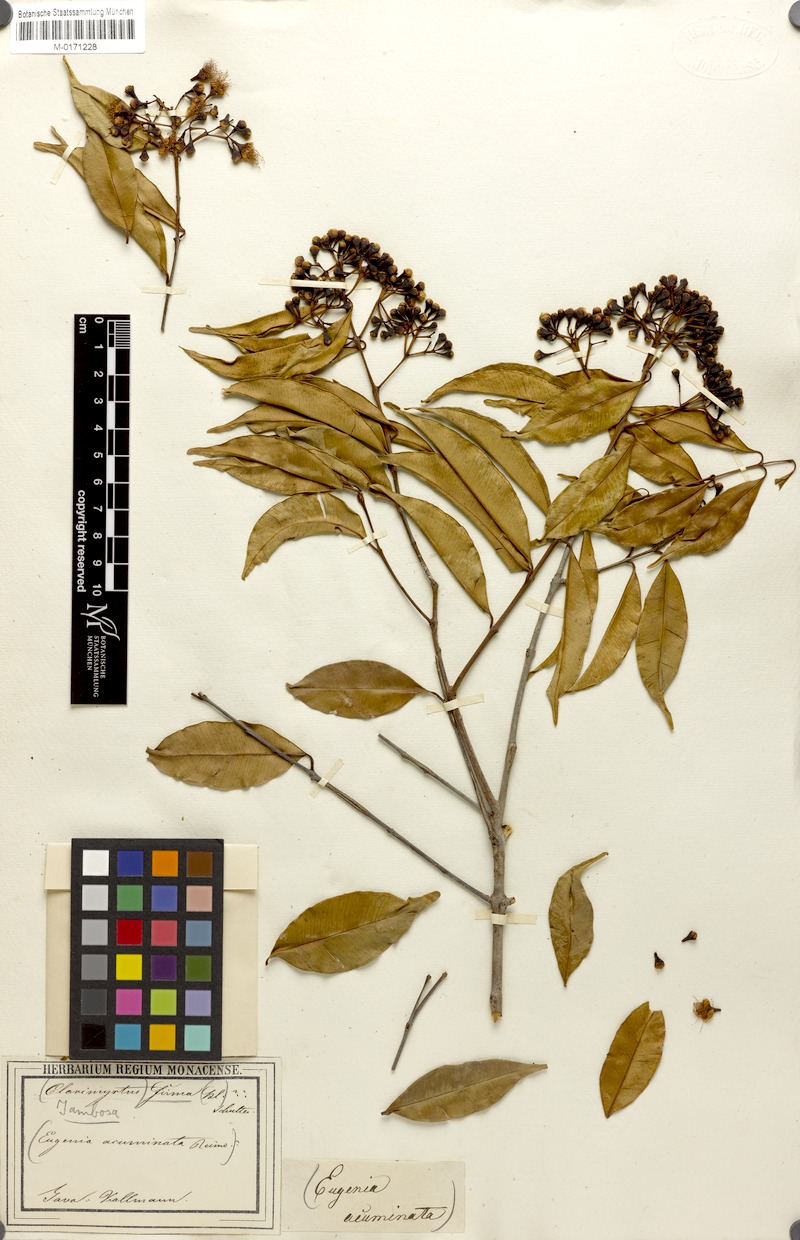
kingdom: Plantae
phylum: Tracheophyta
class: Magnoliopsida
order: Myrtales
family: Myrtaceae
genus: Syzygium
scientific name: Syzygium ampliflorum
